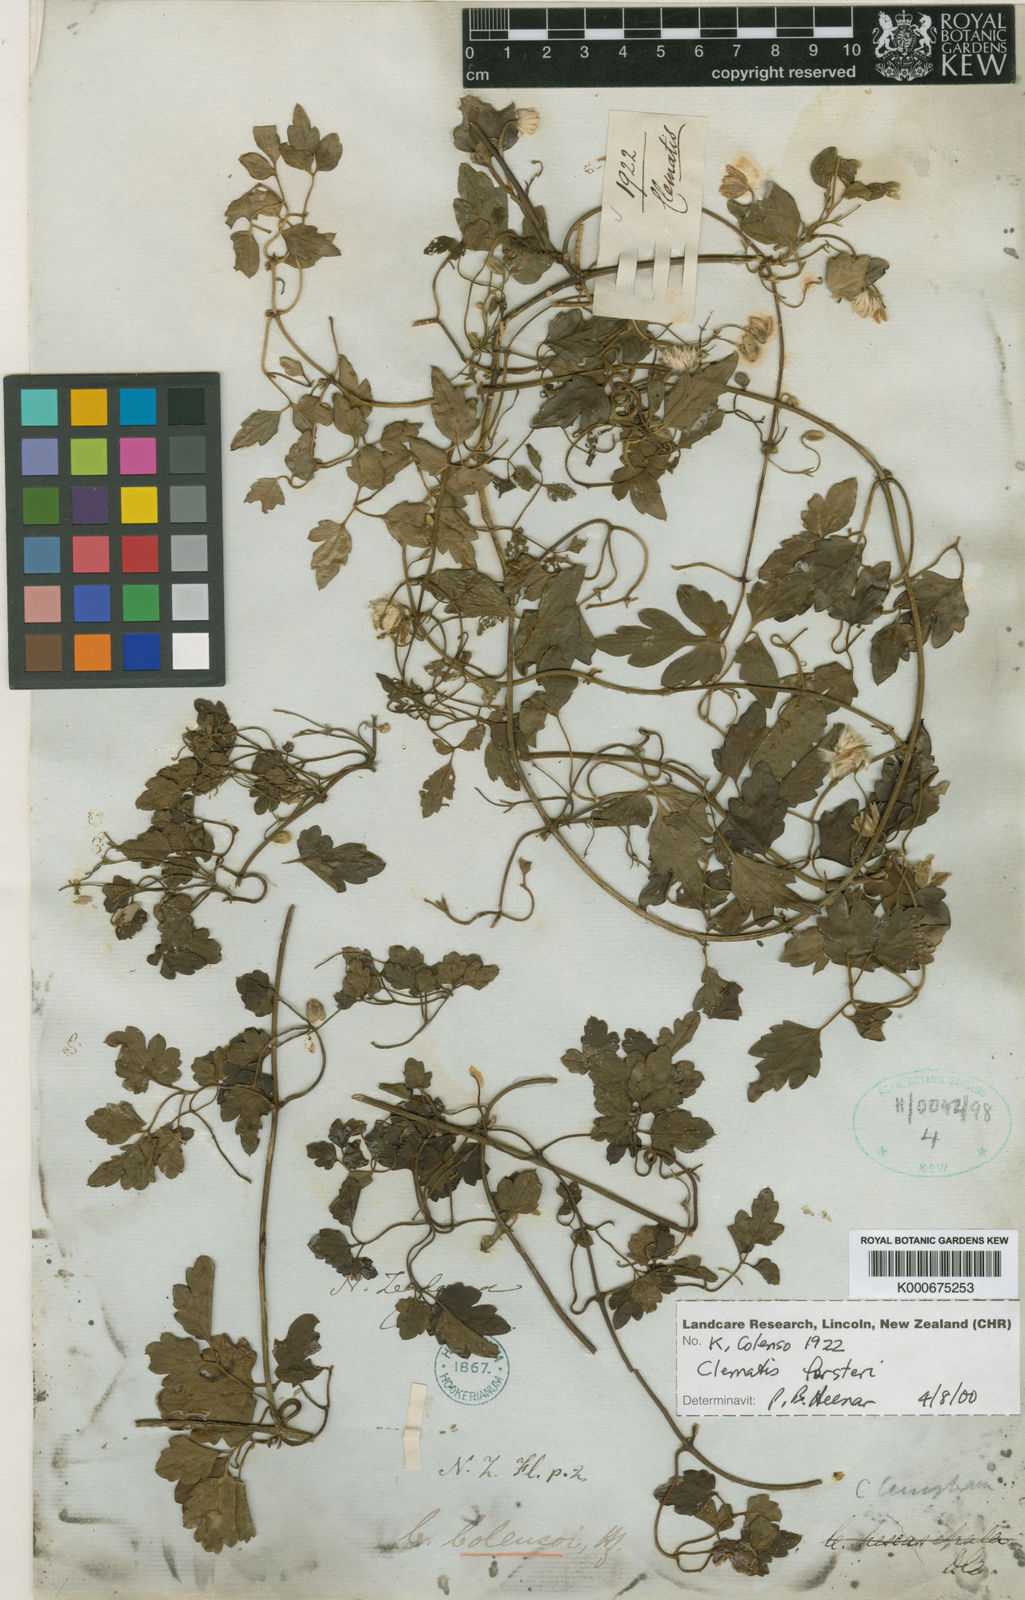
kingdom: Plantae
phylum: Tracheophyta
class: Magnoliopsida
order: Ranunculales
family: Ranunculaceae
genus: Clematis
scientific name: Clematis forsteri
